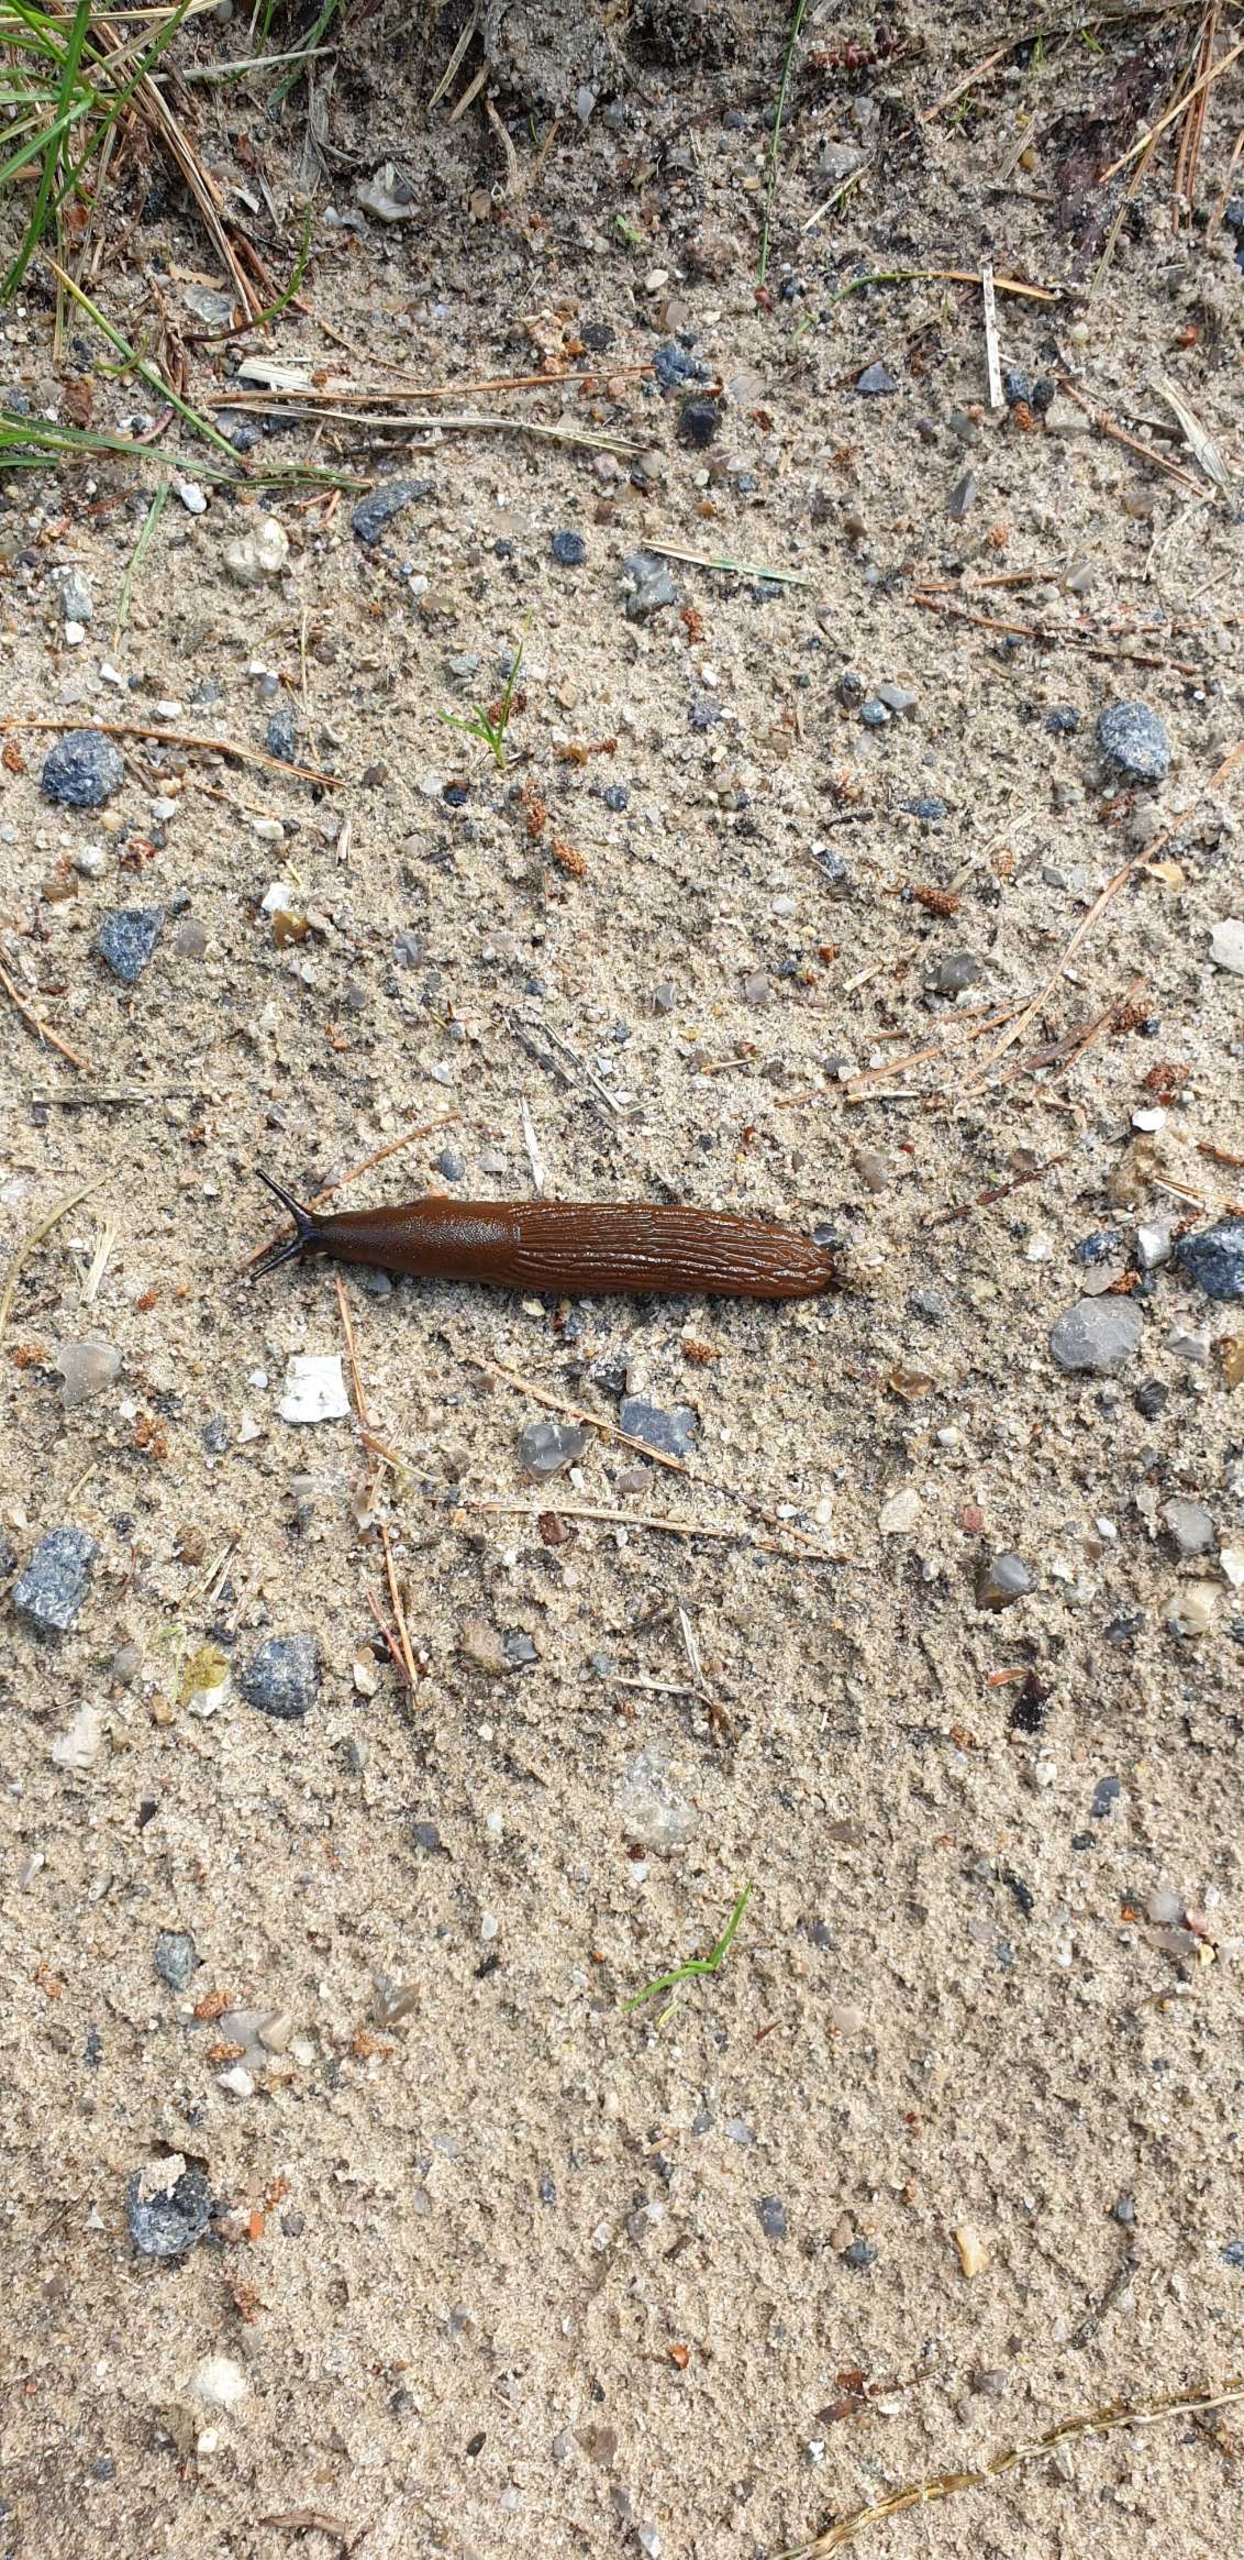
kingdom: Animalia
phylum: Mollusca
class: Gastropoda
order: Stylommatophora
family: Arionidae
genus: Arion
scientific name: Arion vulgaris
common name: Iberisk skovsnegl
